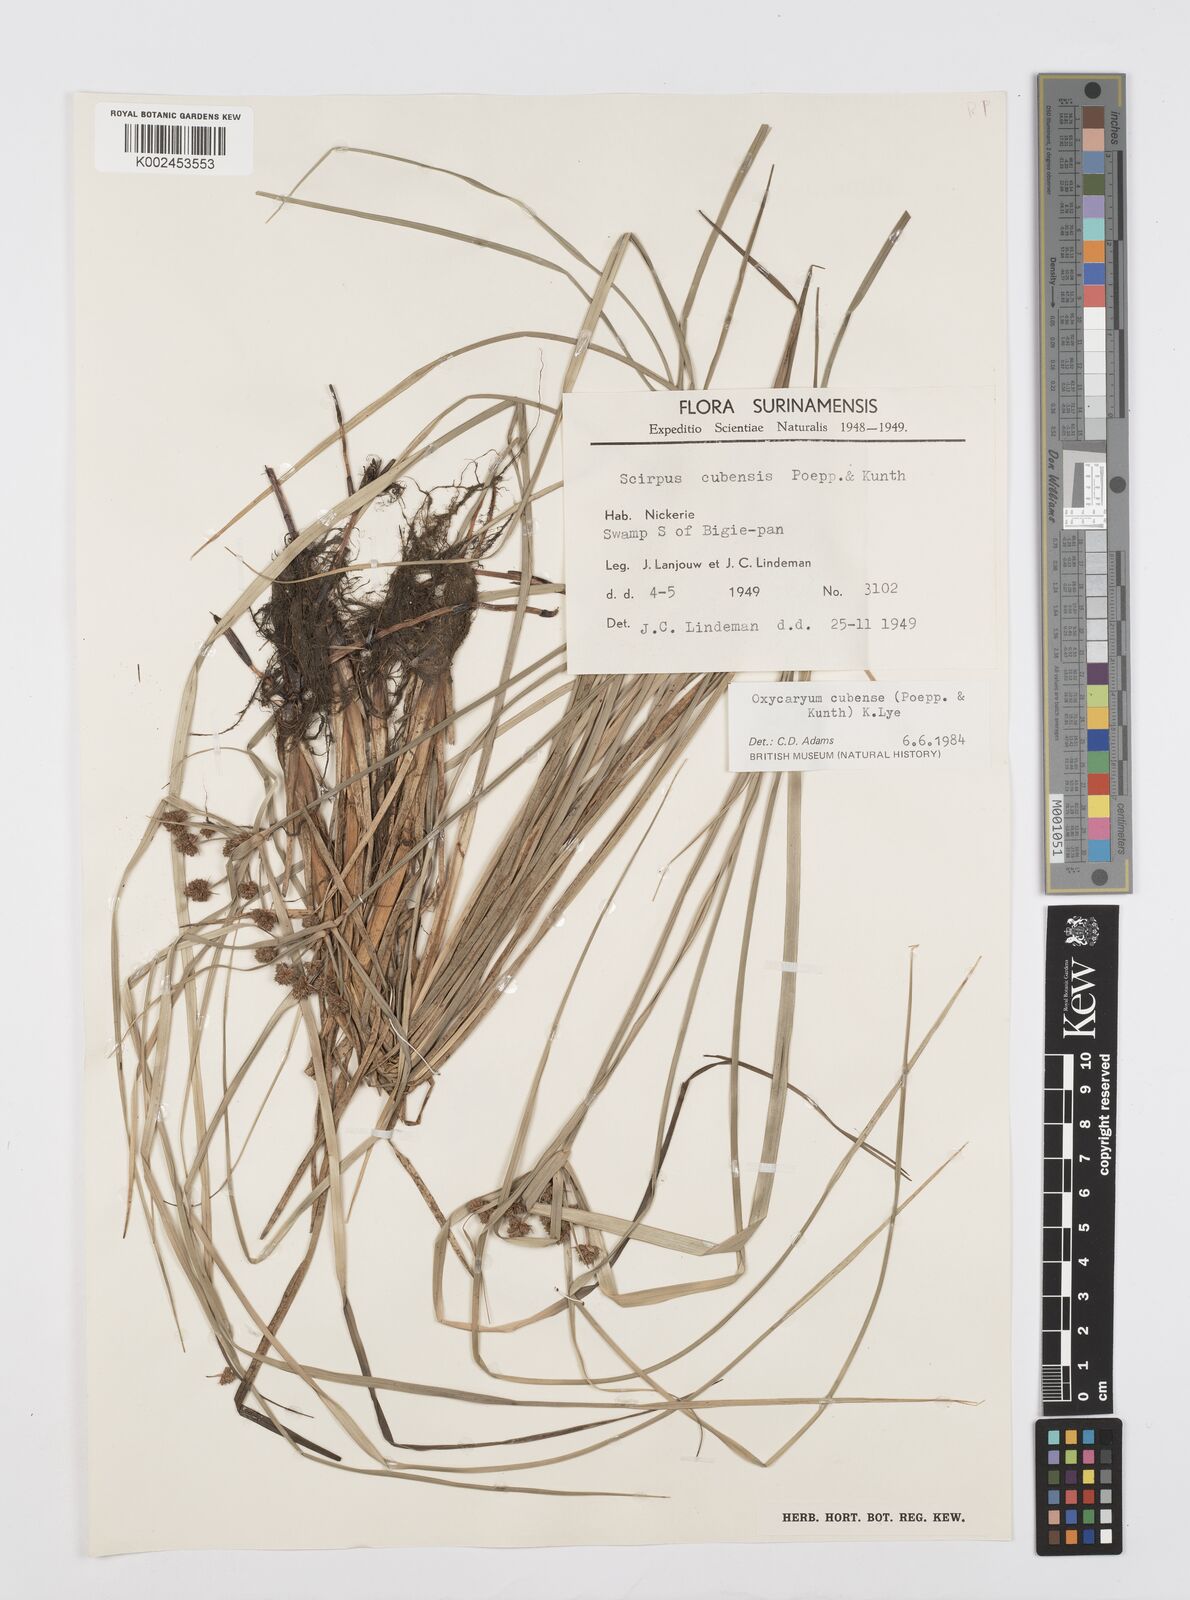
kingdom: Plantae
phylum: Tracheophyta
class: Liliopsida
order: Poales
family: Cyperaceae
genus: Cyperus
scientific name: Cyperus elegans
